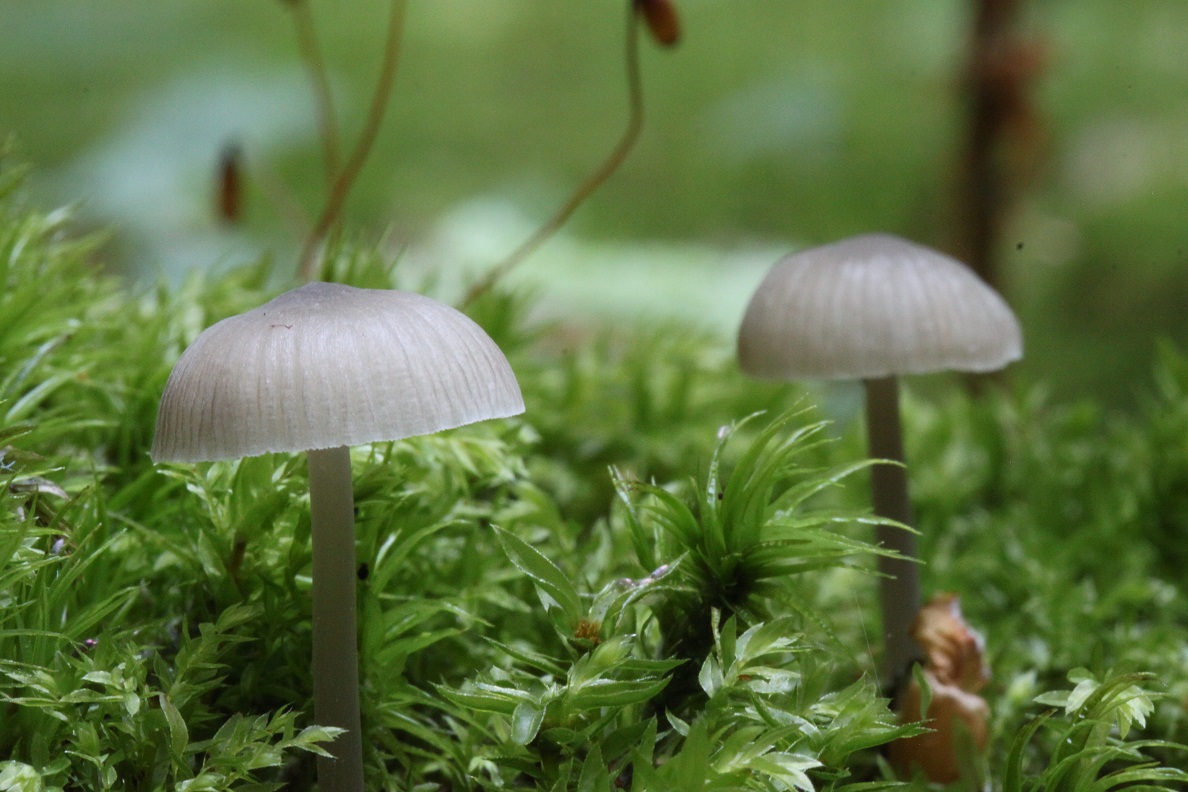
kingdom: Fungi
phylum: Basidiomycota
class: Agaricomycetes
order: Agaricales
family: Mycenaceae
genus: Mycena
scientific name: Mycena abramsii
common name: sommer-huesvamp
